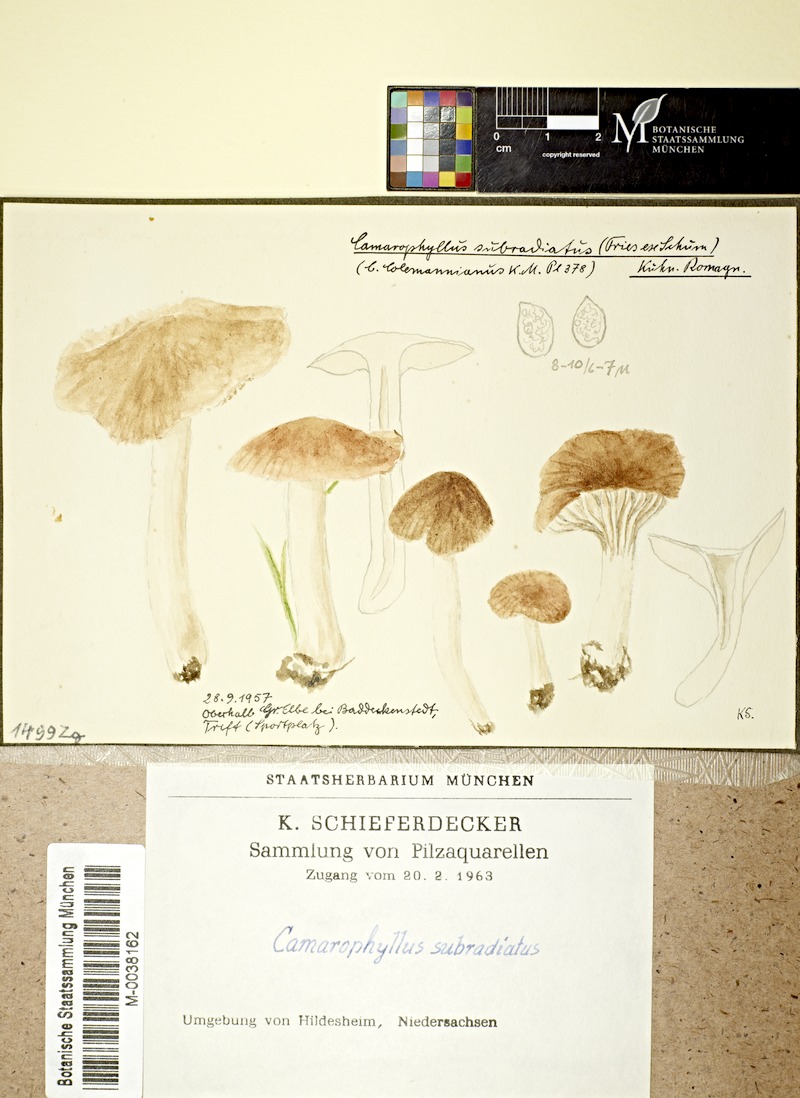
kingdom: Fungi
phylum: Basidiomycota
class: Agaricomycetes
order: Agaricales
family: Hygrophoraceae
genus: Cuphophyllus
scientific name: Cuphophyllus virgineus
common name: Snowy waxcap
